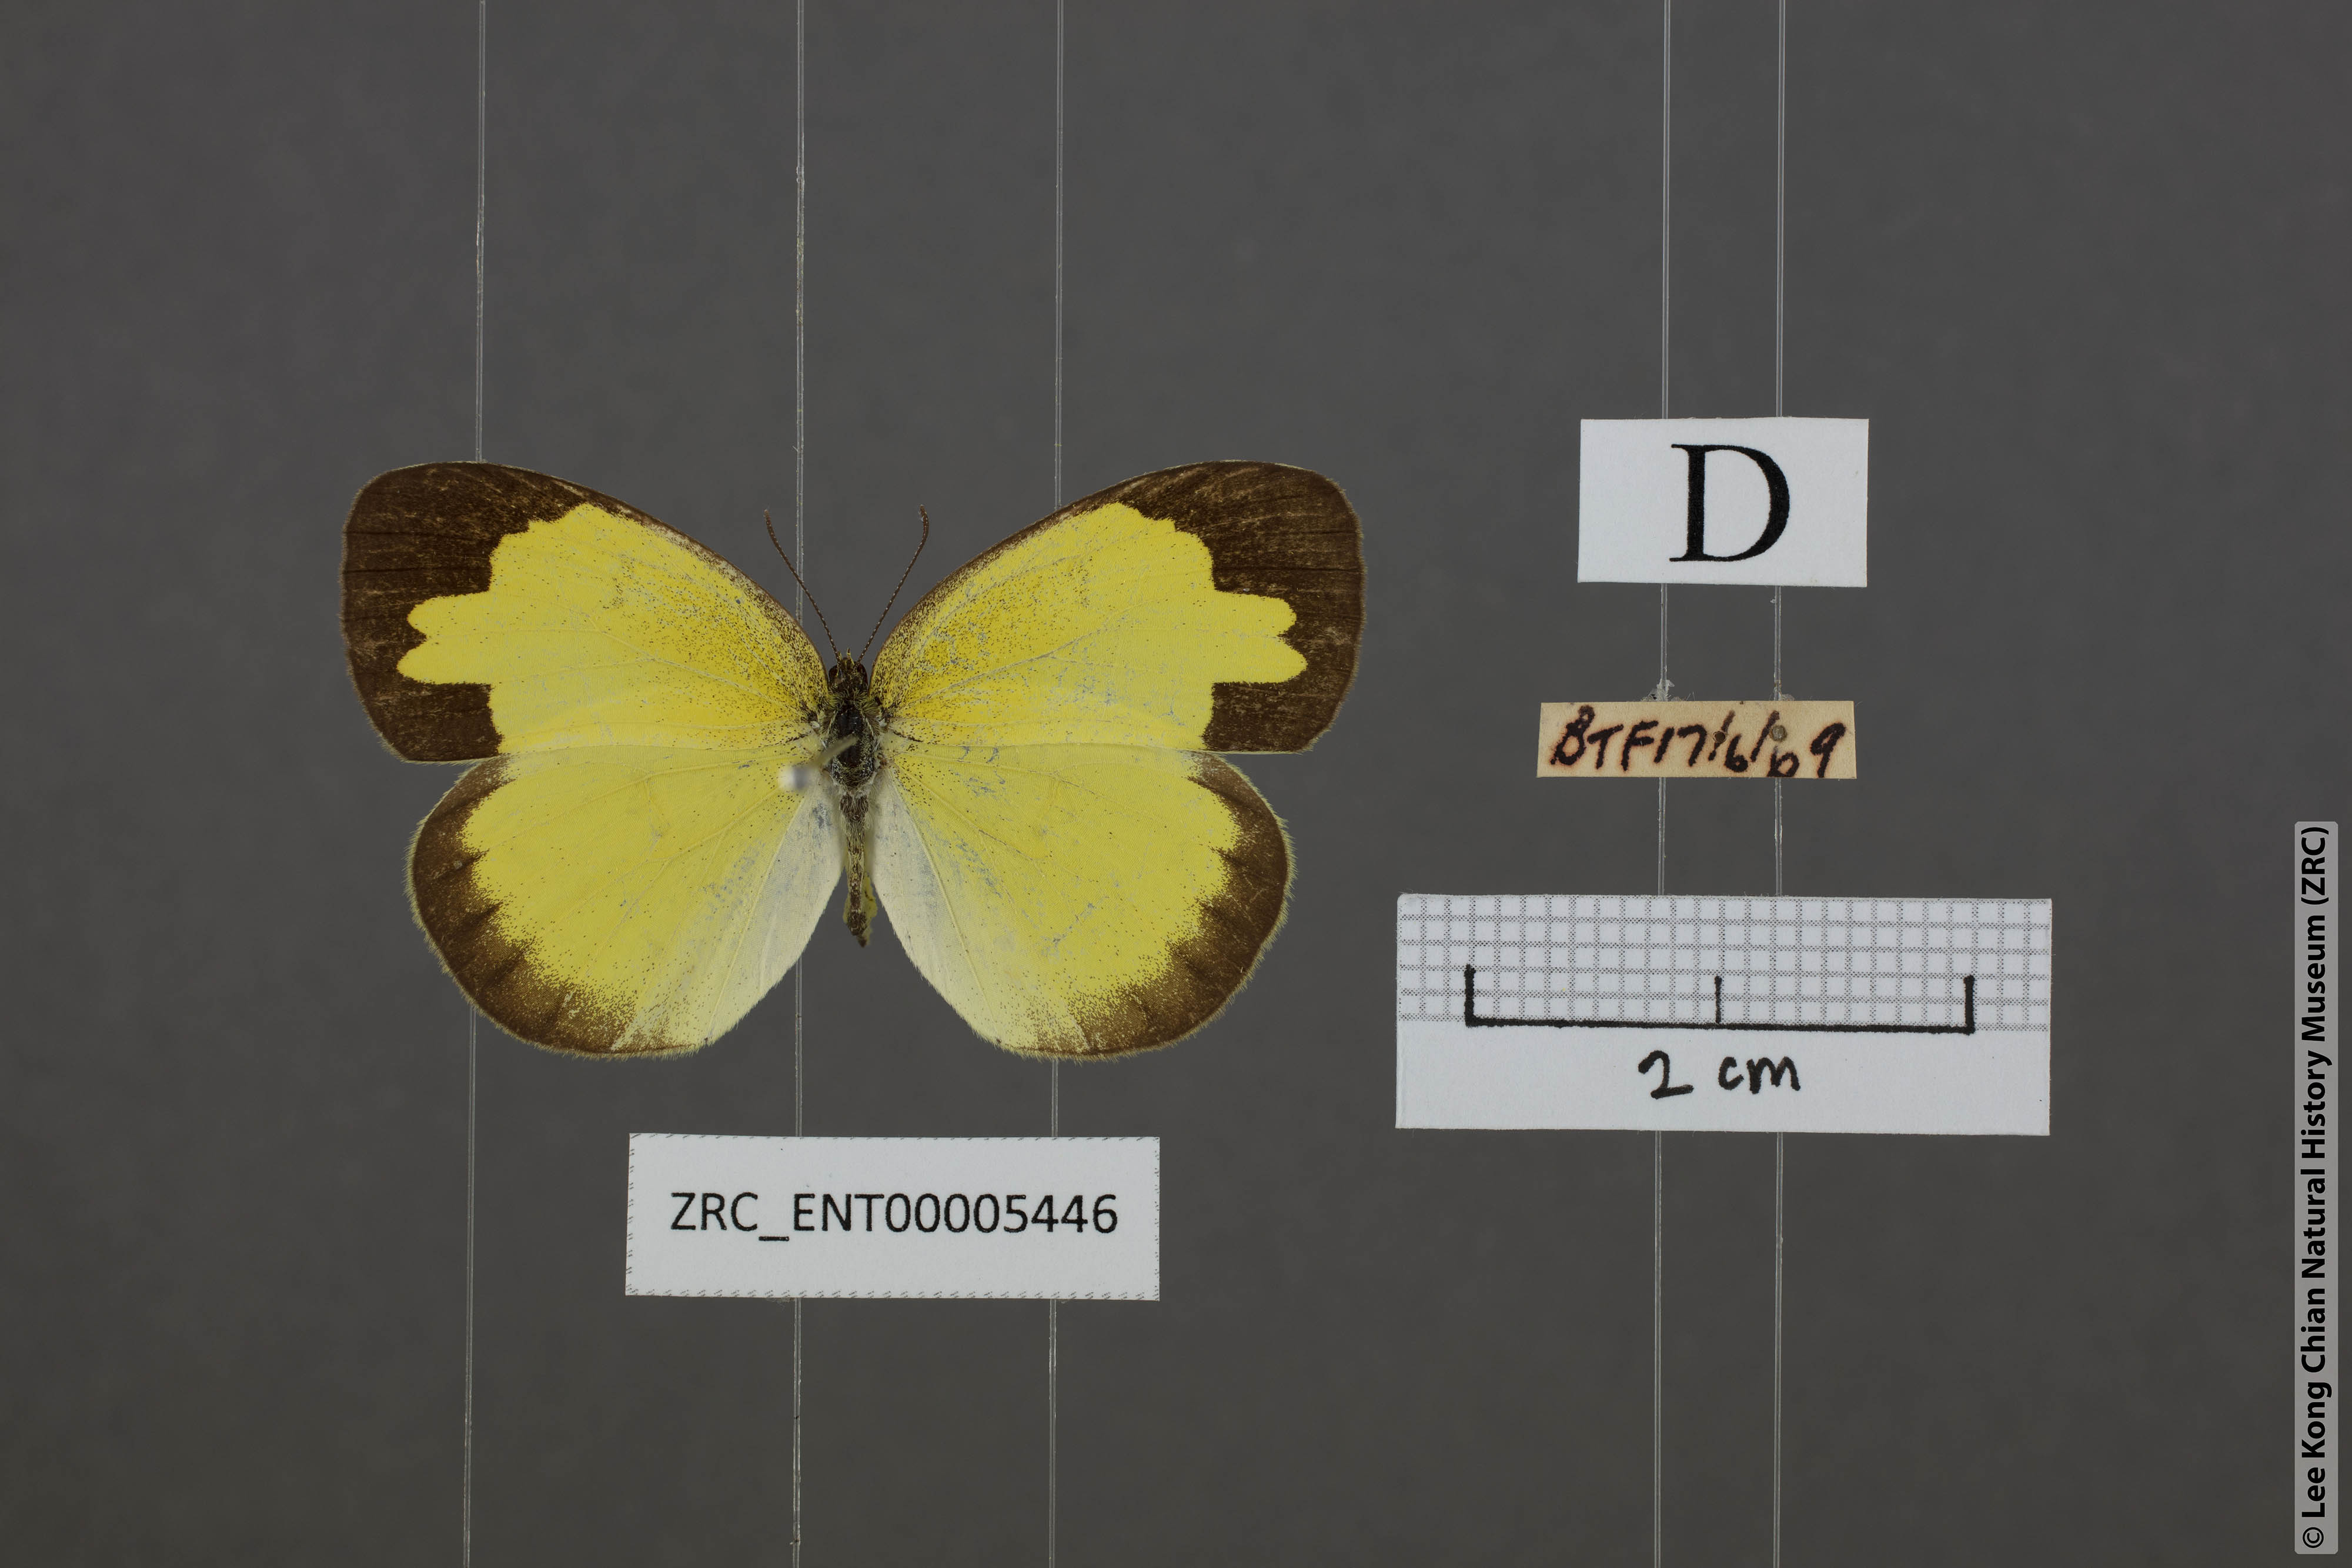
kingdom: Animalia
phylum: Arthropoda
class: Insecta
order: Lepidoptera
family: Pieridae
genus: Eurema
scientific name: Eurema hecabe
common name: Pale grass yellow
